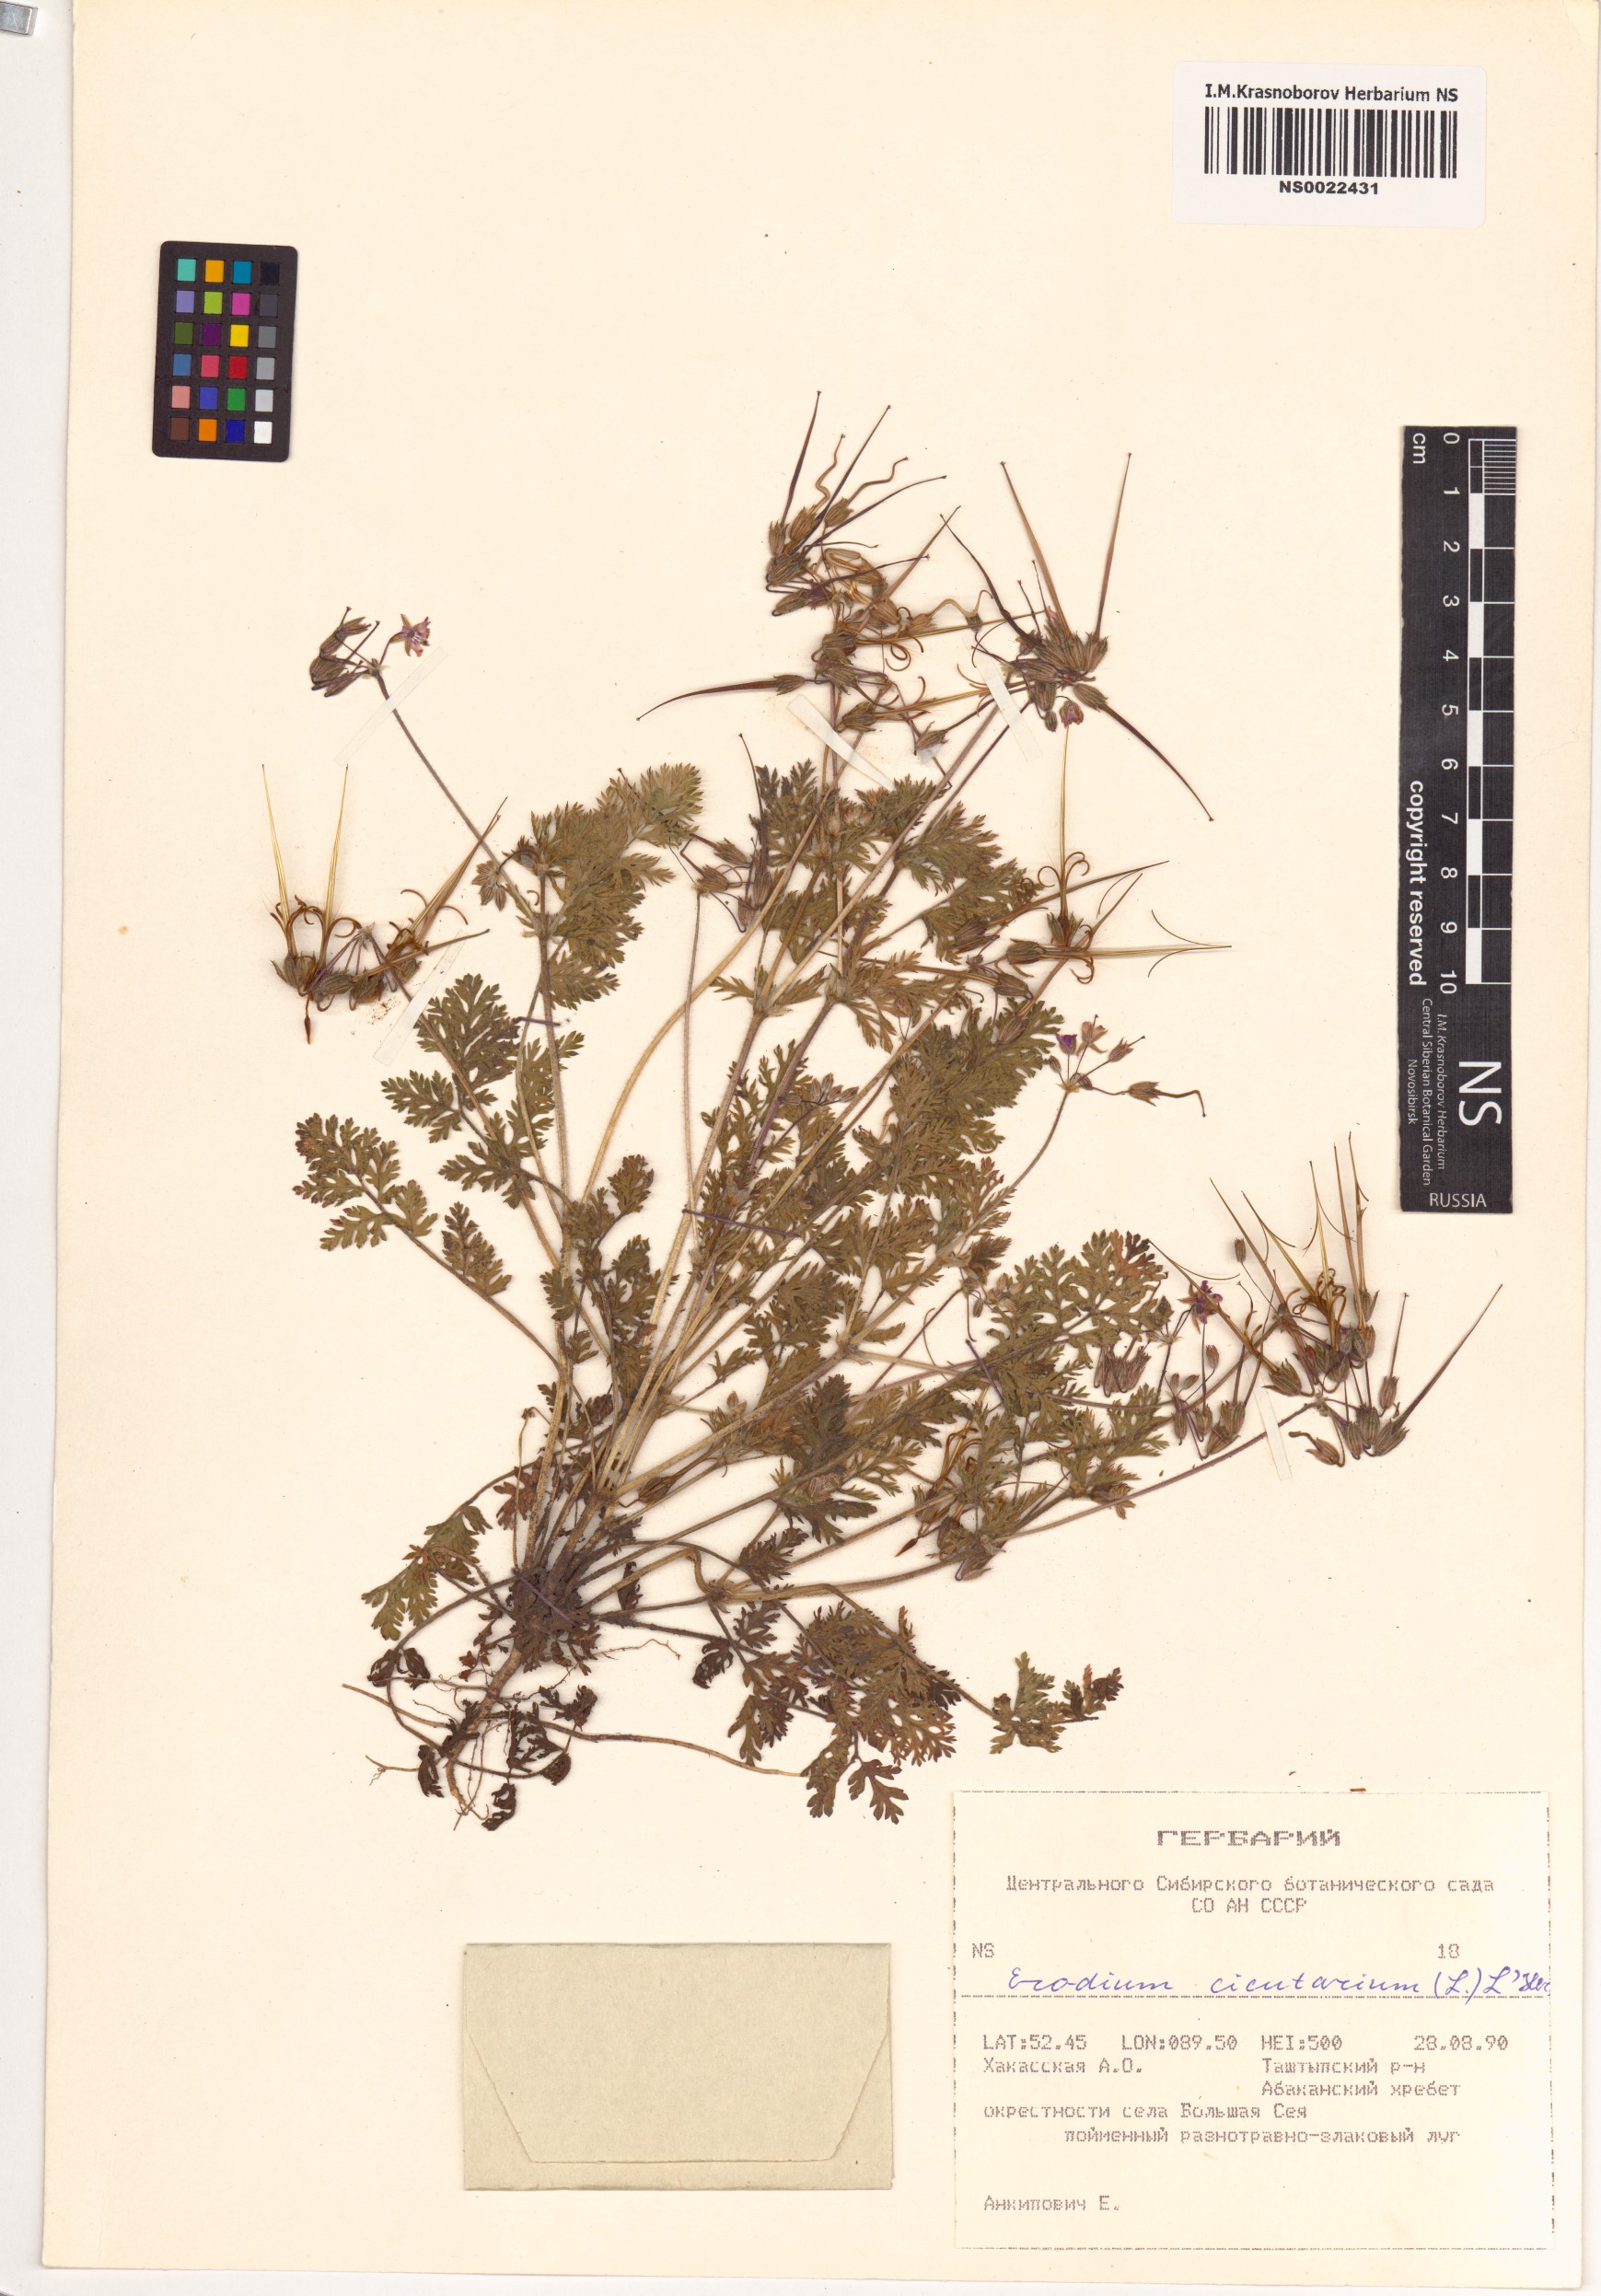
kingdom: Plantae
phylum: Tracheophyta
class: Magnoliopsida
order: Geraniales
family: Geraniaceae
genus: Erodium
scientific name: Erodium cicutarium
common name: Common stork's-bill
